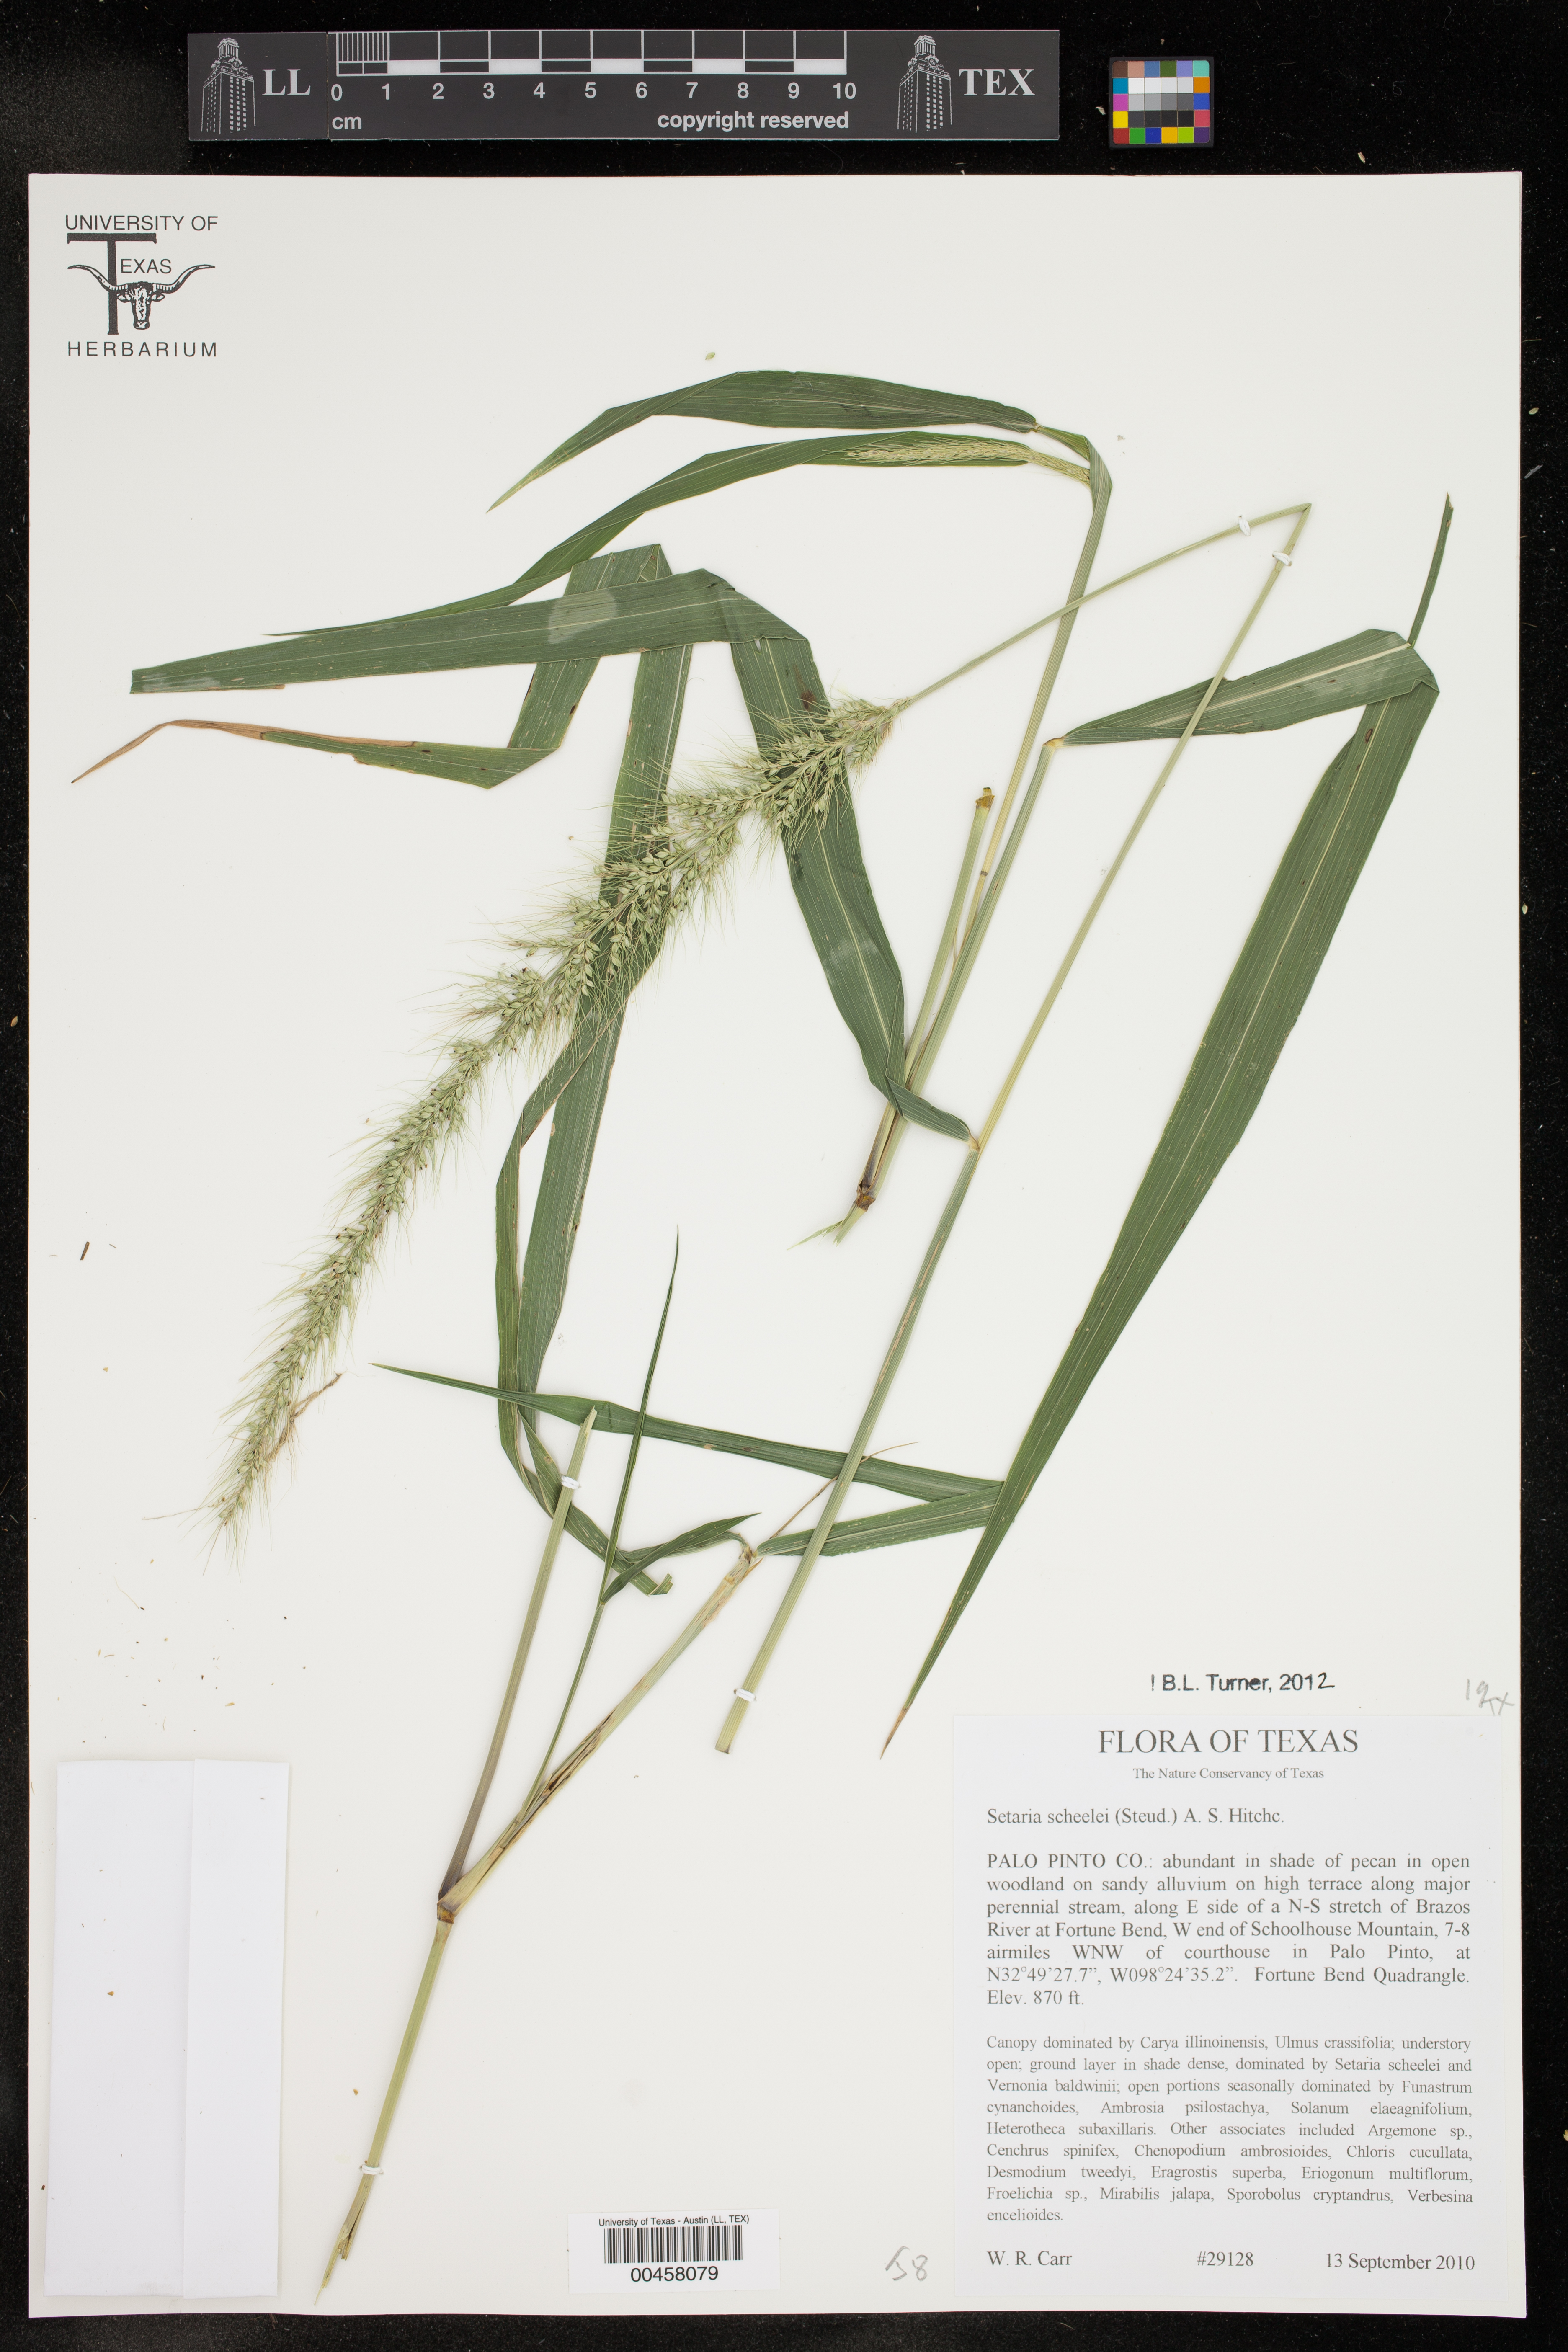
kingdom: Plantae
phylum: Tracheophyta
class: Liliopsida
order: Poales
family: Poaceae
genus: Setaria
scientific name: Setaria scheelei
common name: Southwestern bristle grass
